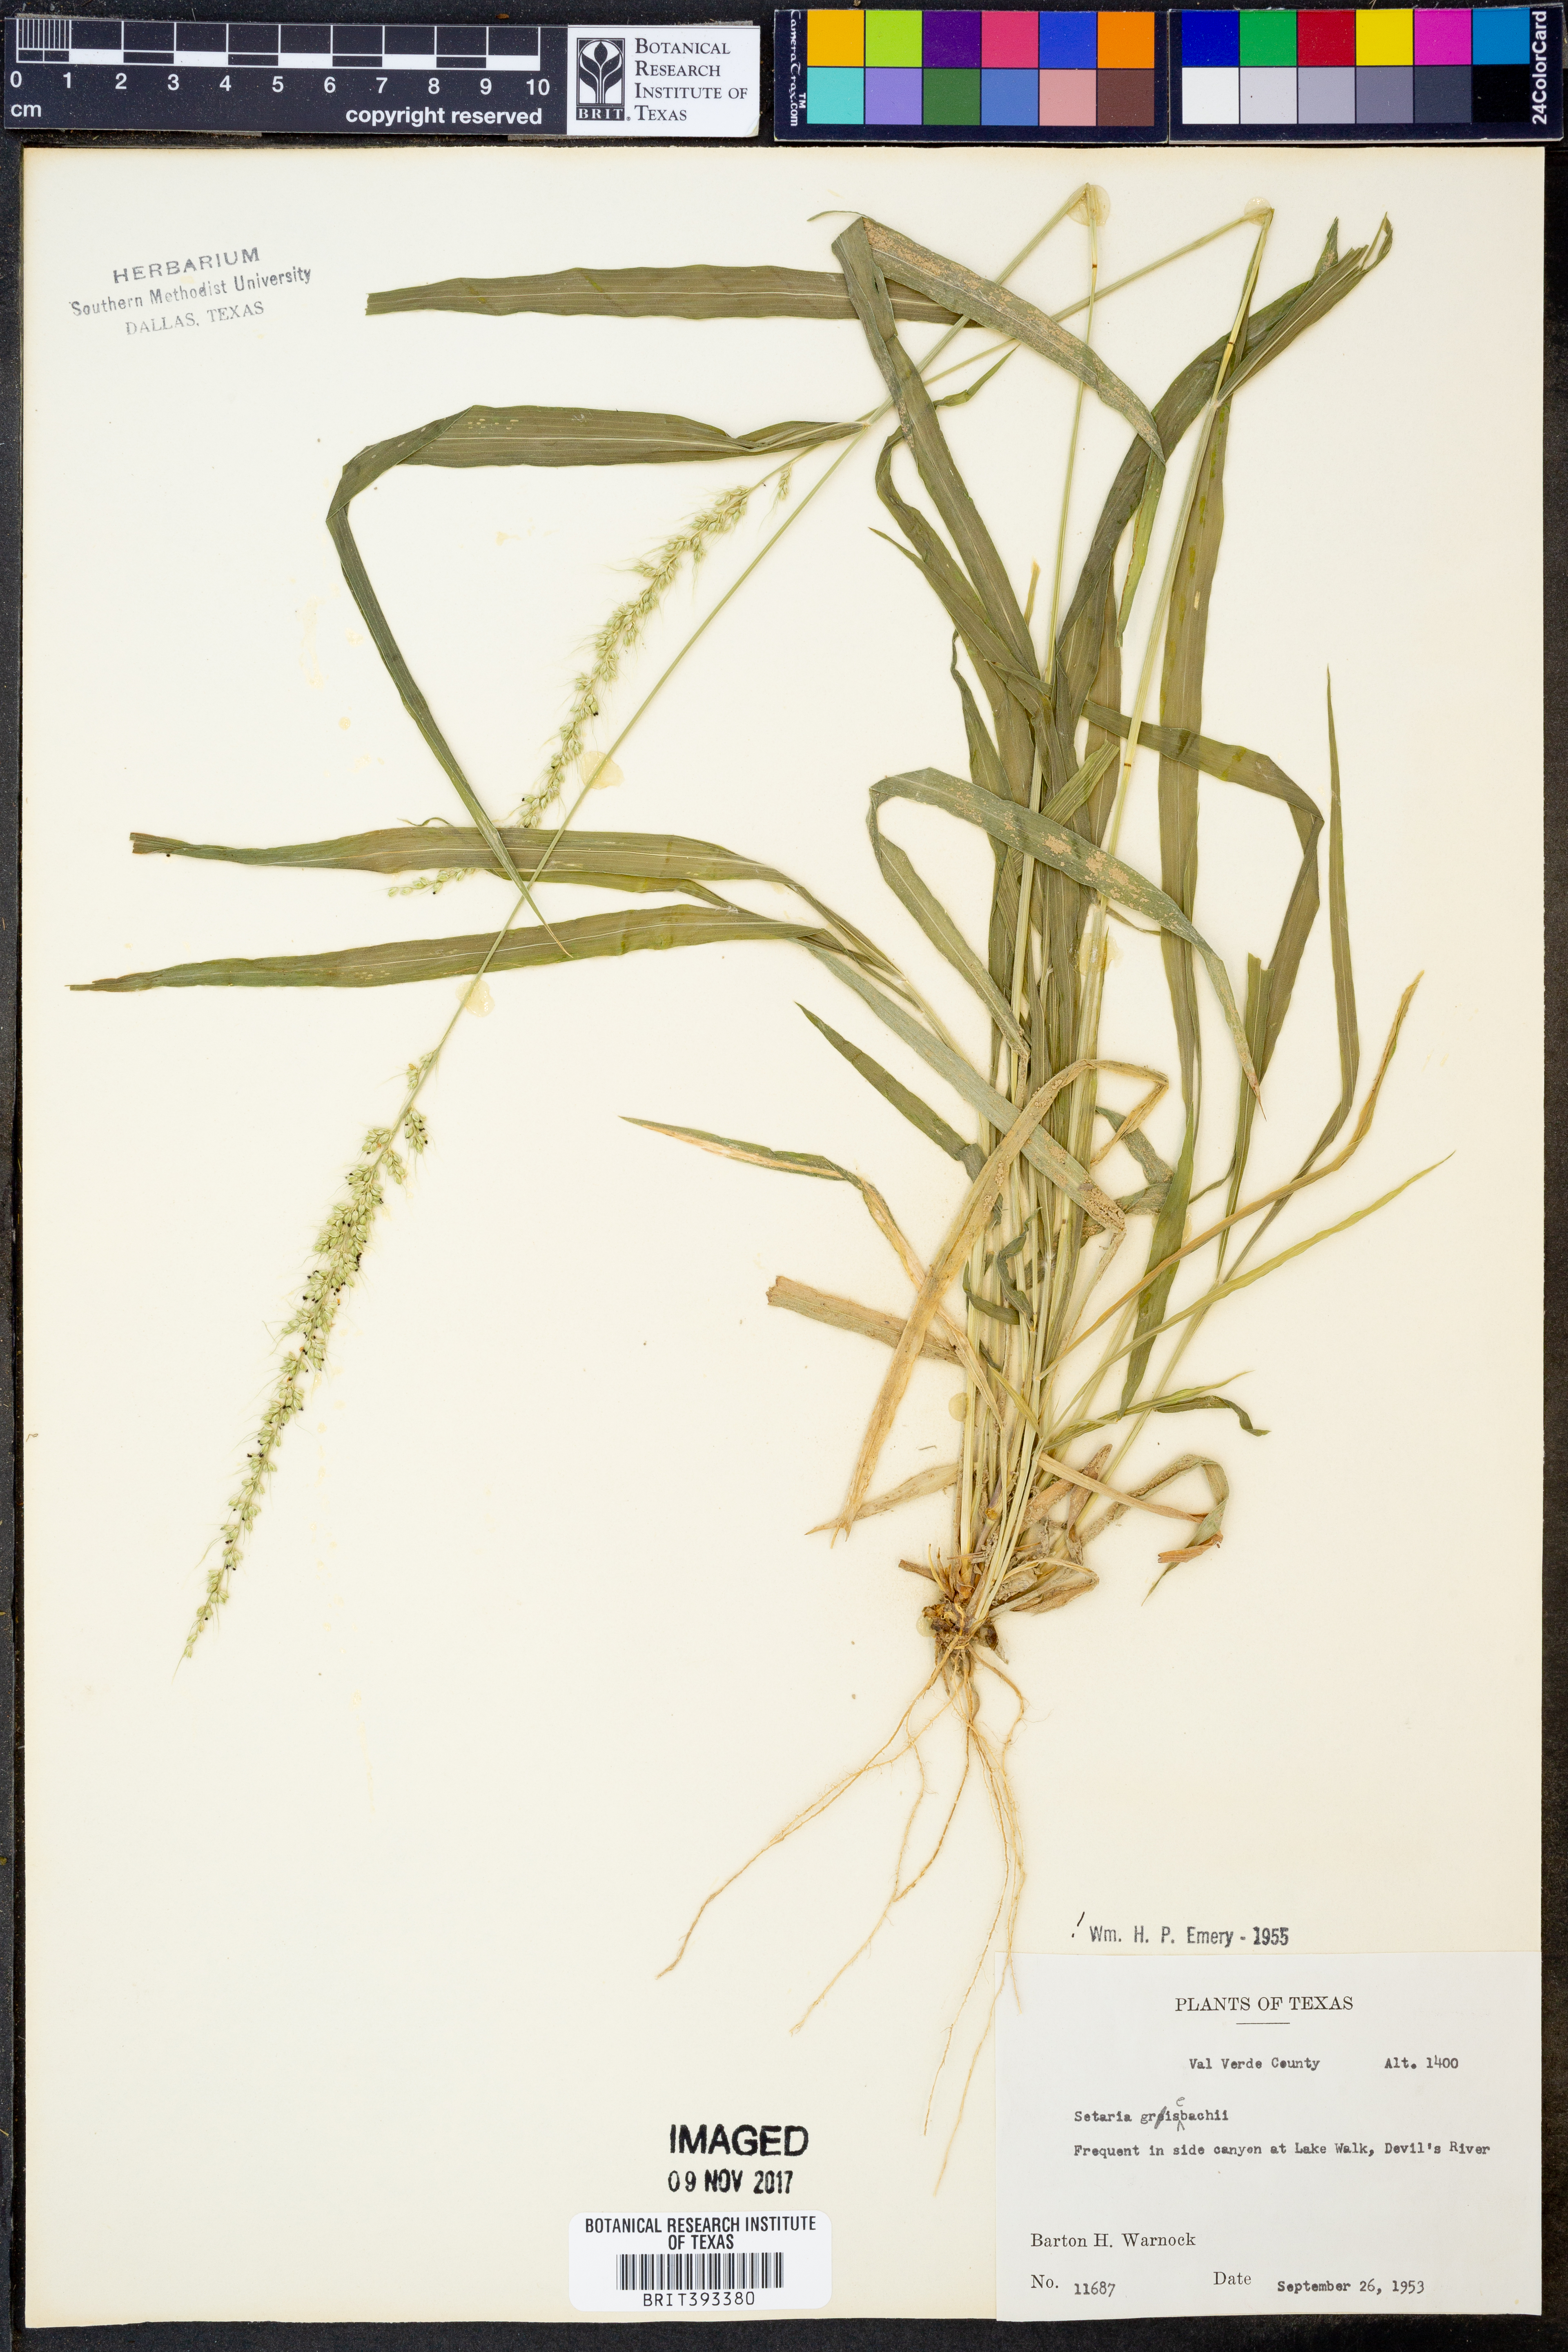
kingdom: Plantae
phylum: Tracheophyta
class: Liliopsida
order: Poales
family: Poaceae
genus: Setaria
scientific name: Setaria grisebachii
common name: Grisebach's bristle grass
